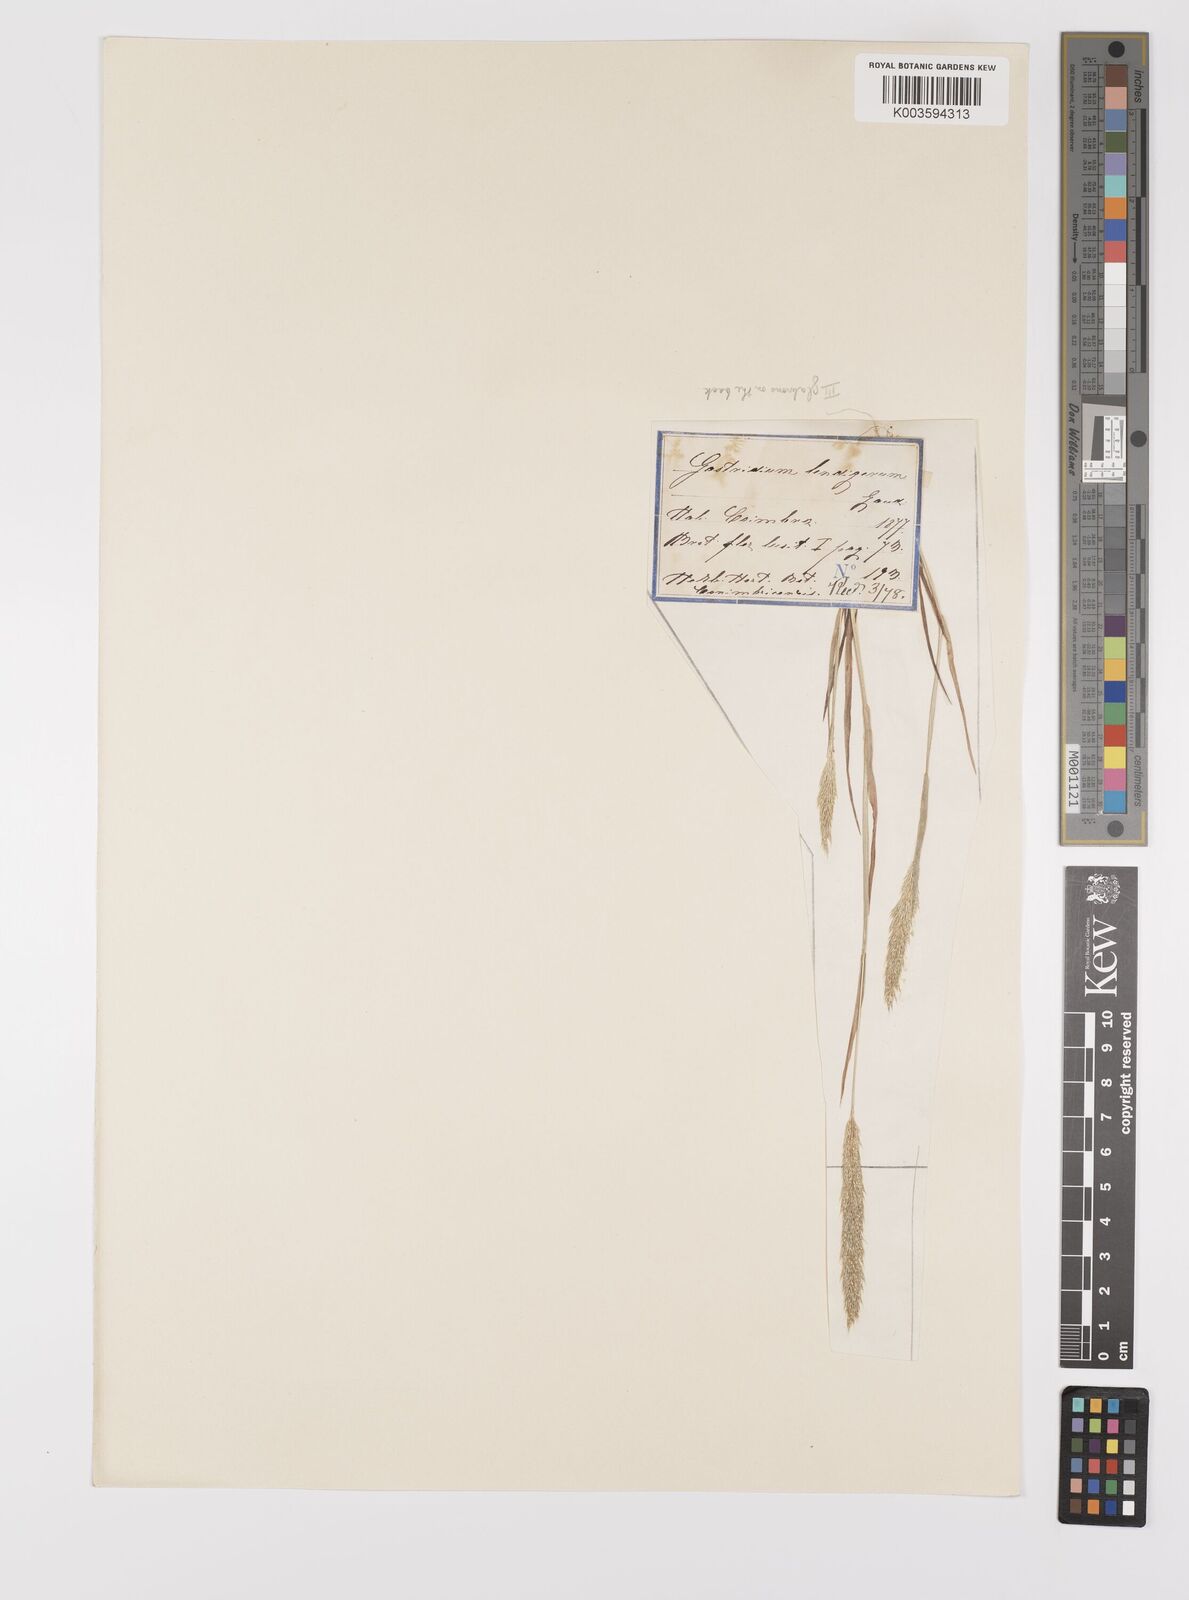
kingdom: Plantae
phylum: Tracheophyta
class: Liliopsida
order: Poales
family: Poaceae
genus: Gastridium
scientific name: Gastridium ventricosum
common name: Nit-grass
